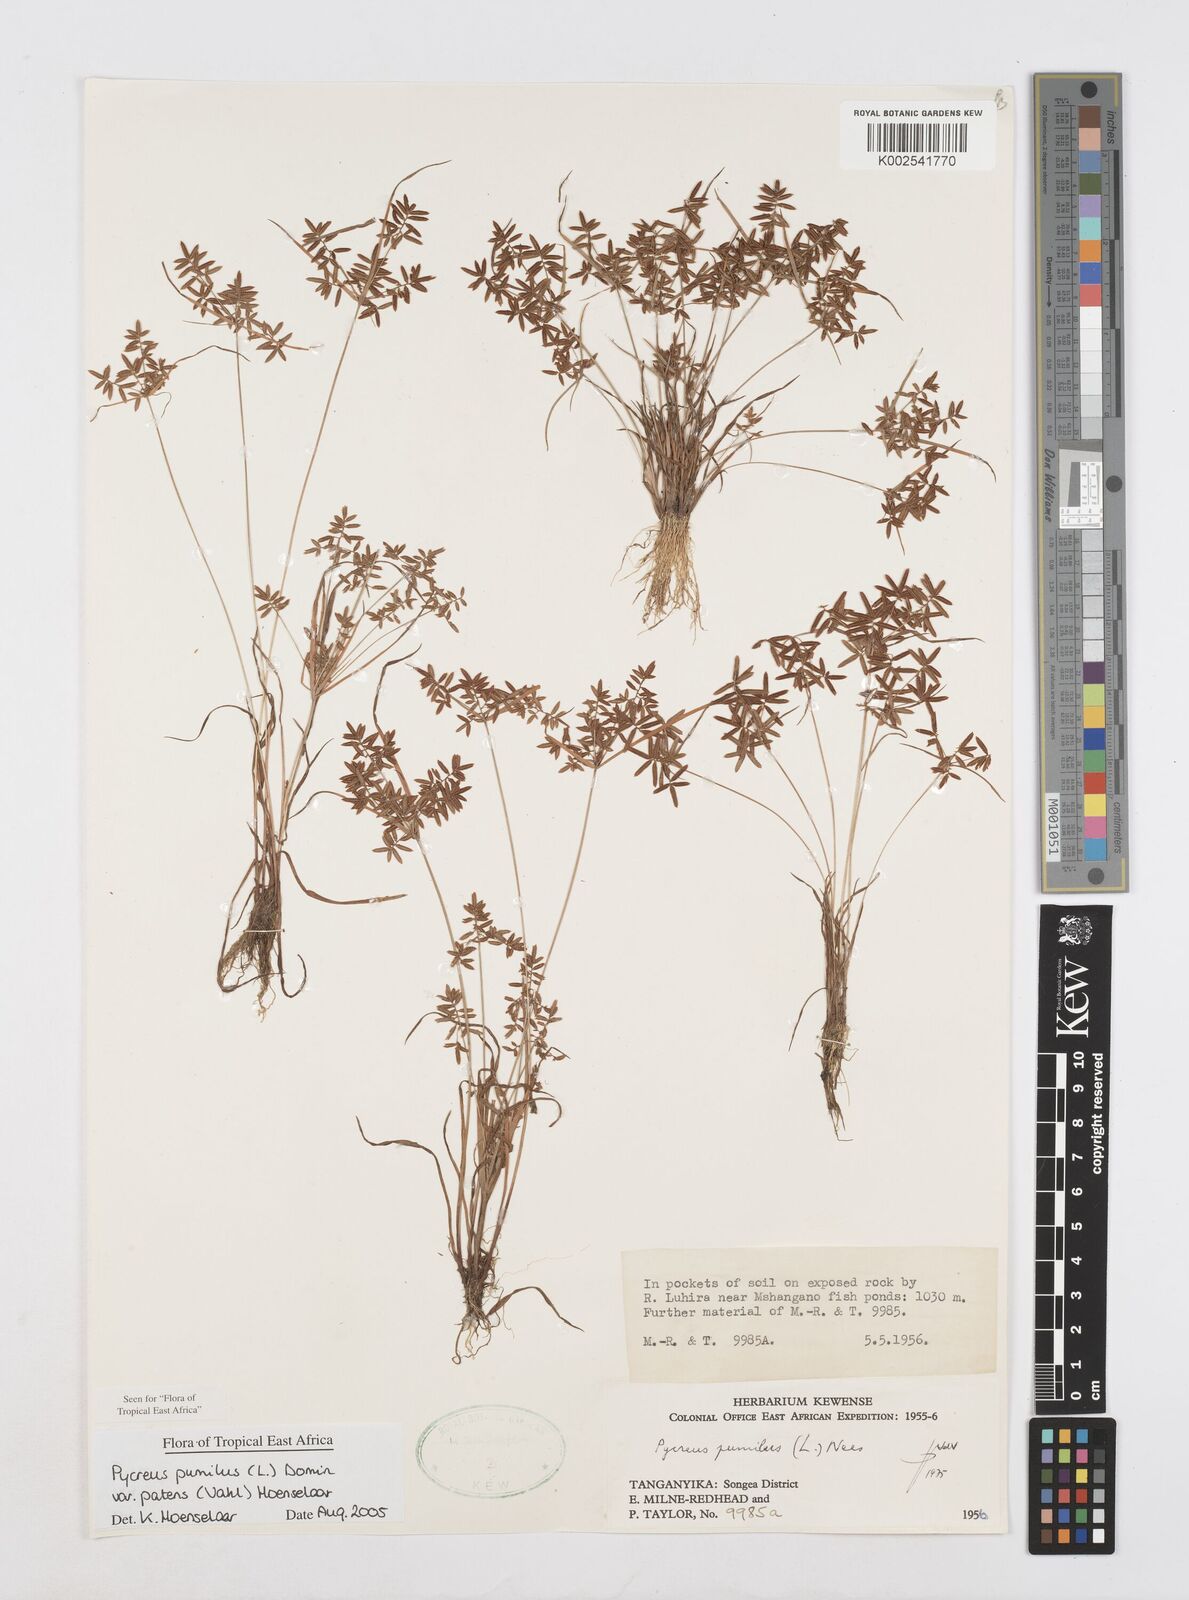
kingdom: Plantae
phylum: Tracheophyta
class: Liliopsida
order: Poales
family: Cyperaceae
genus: Cyperus
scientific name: Cyperus pumilus
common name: Low flatsedge
